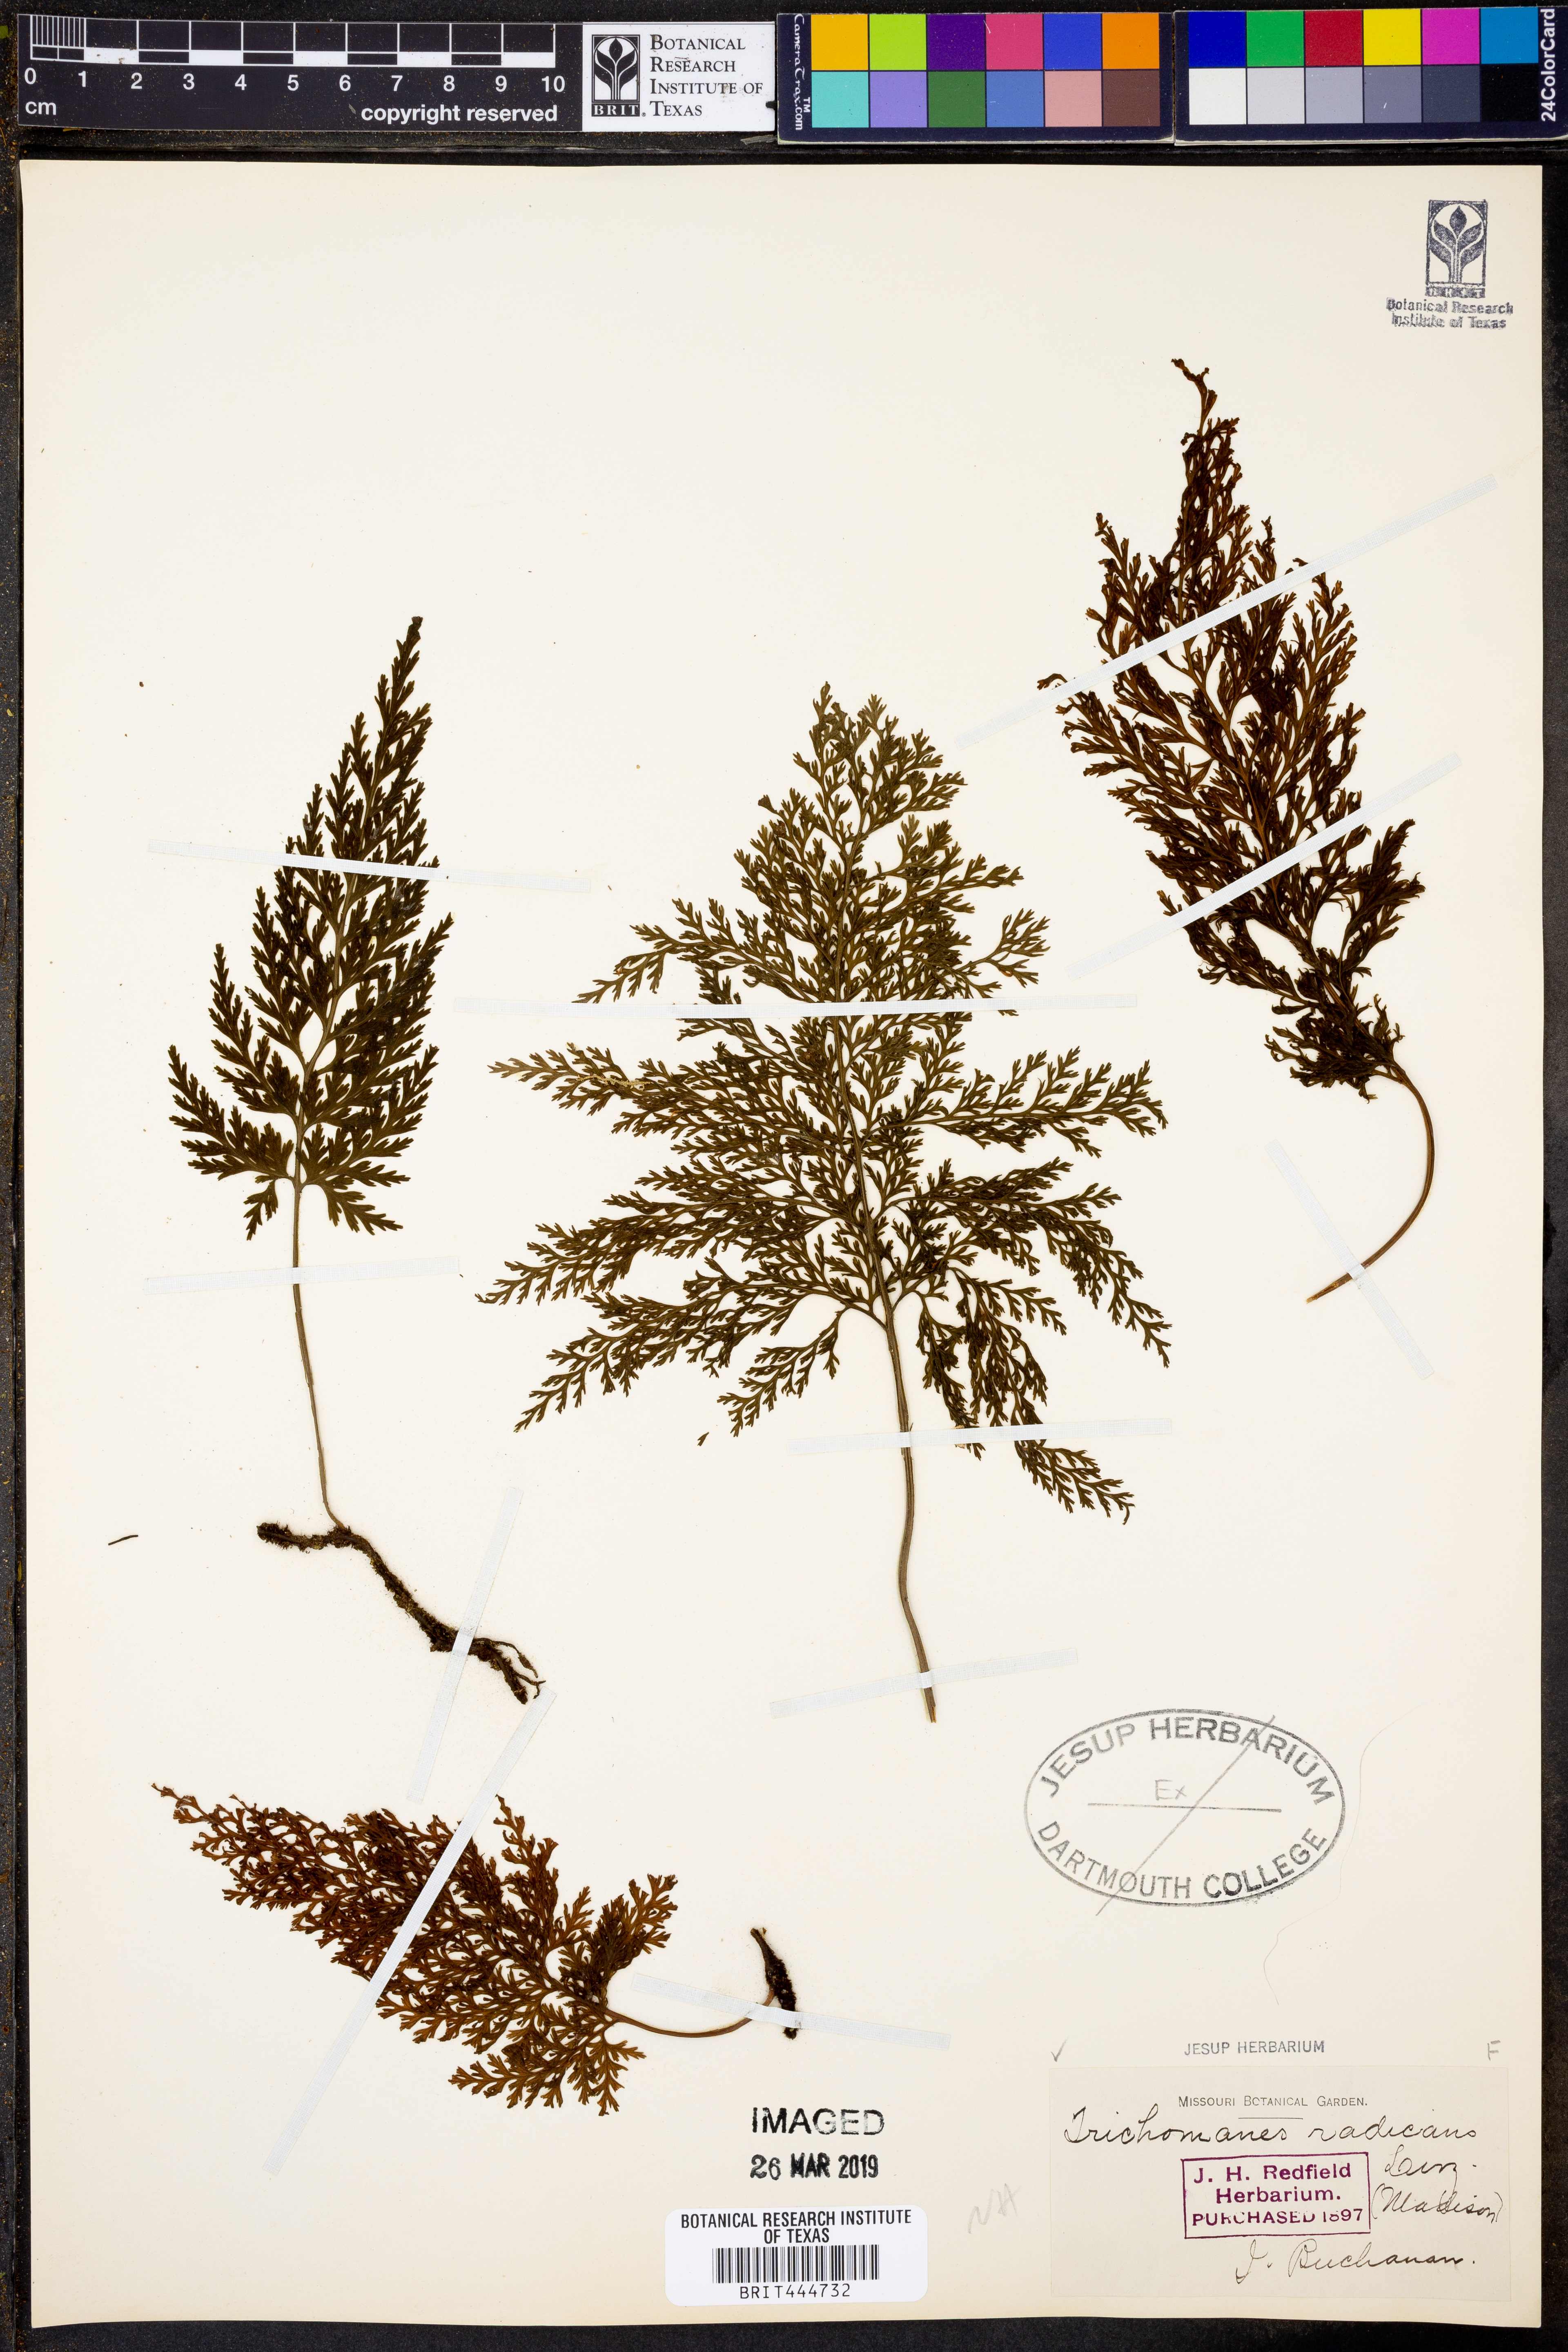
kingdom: Plantae
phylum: Tracheophyta
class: Polypodiopsida
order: Hymenophyllales
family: Hymenophyllaceae
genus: Vandenboschia
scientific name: Vandenboschia radicans
